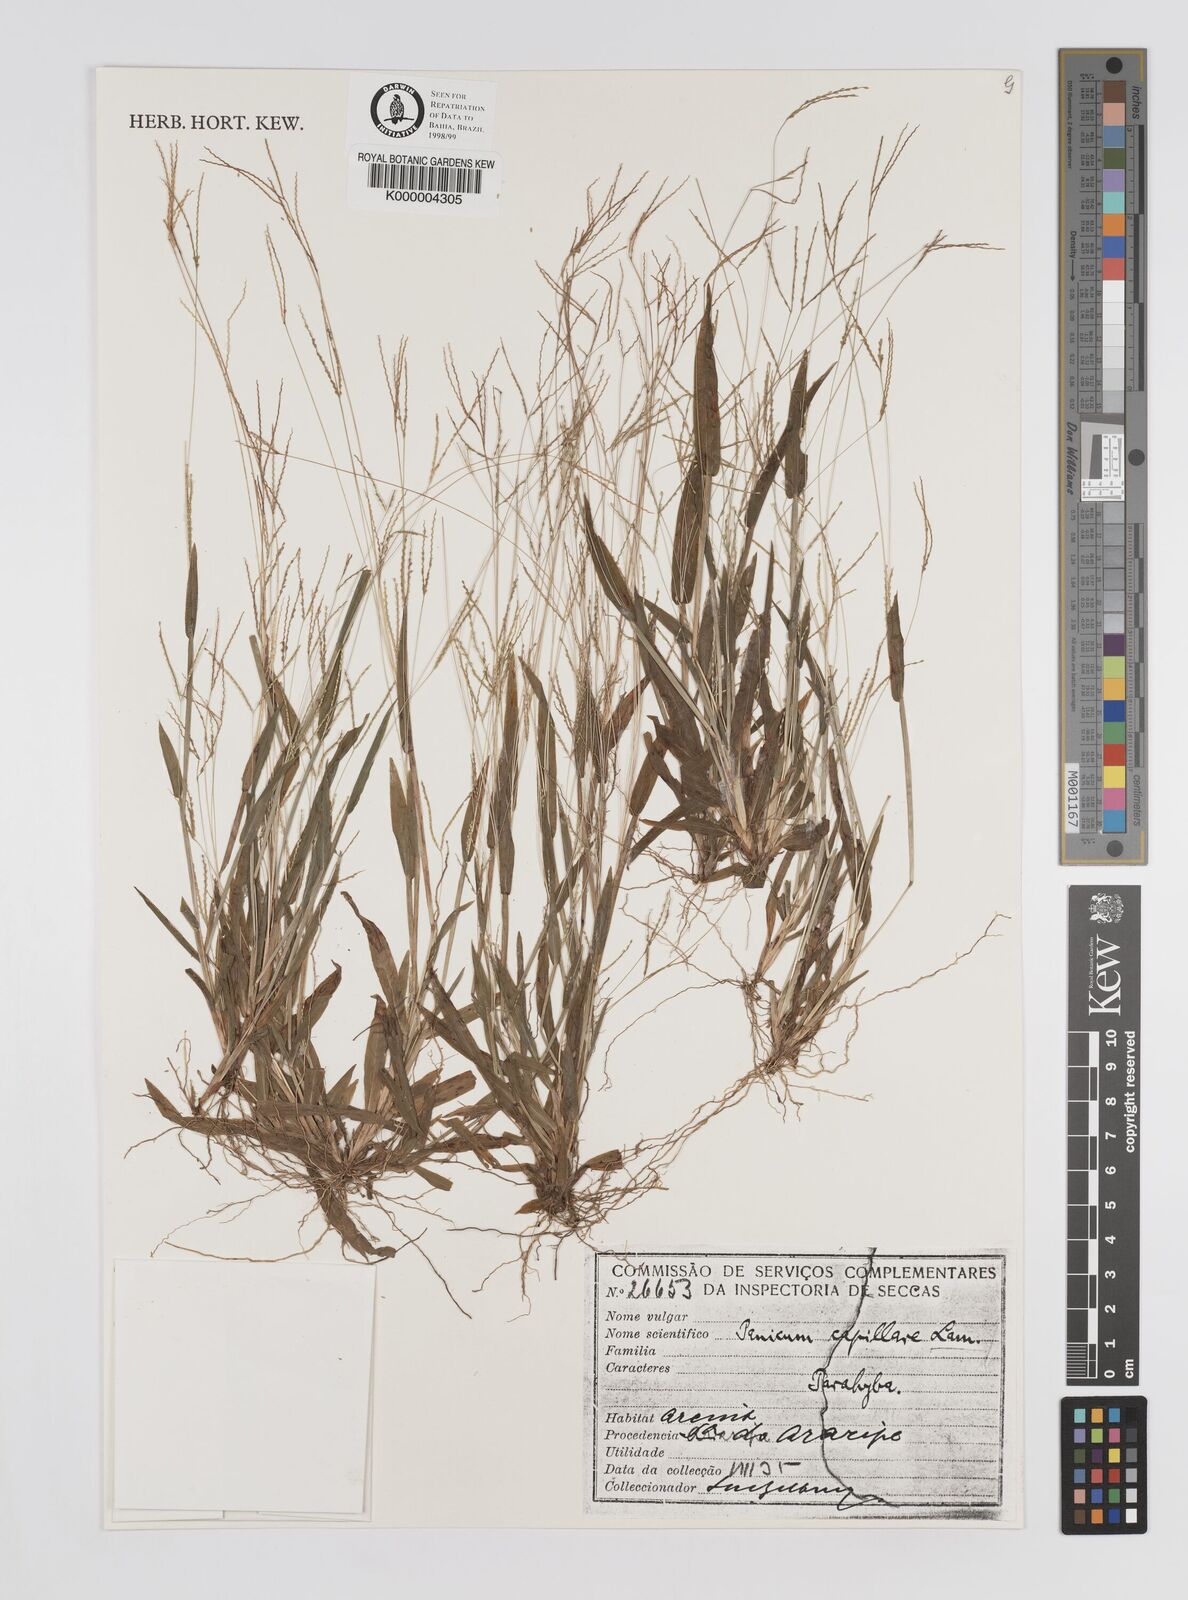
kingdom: Plantae
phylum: Tracheophyta
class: Liliopsida
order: Poales
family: Poaceae
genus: Axonopus
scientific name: Axonopus capillaris
